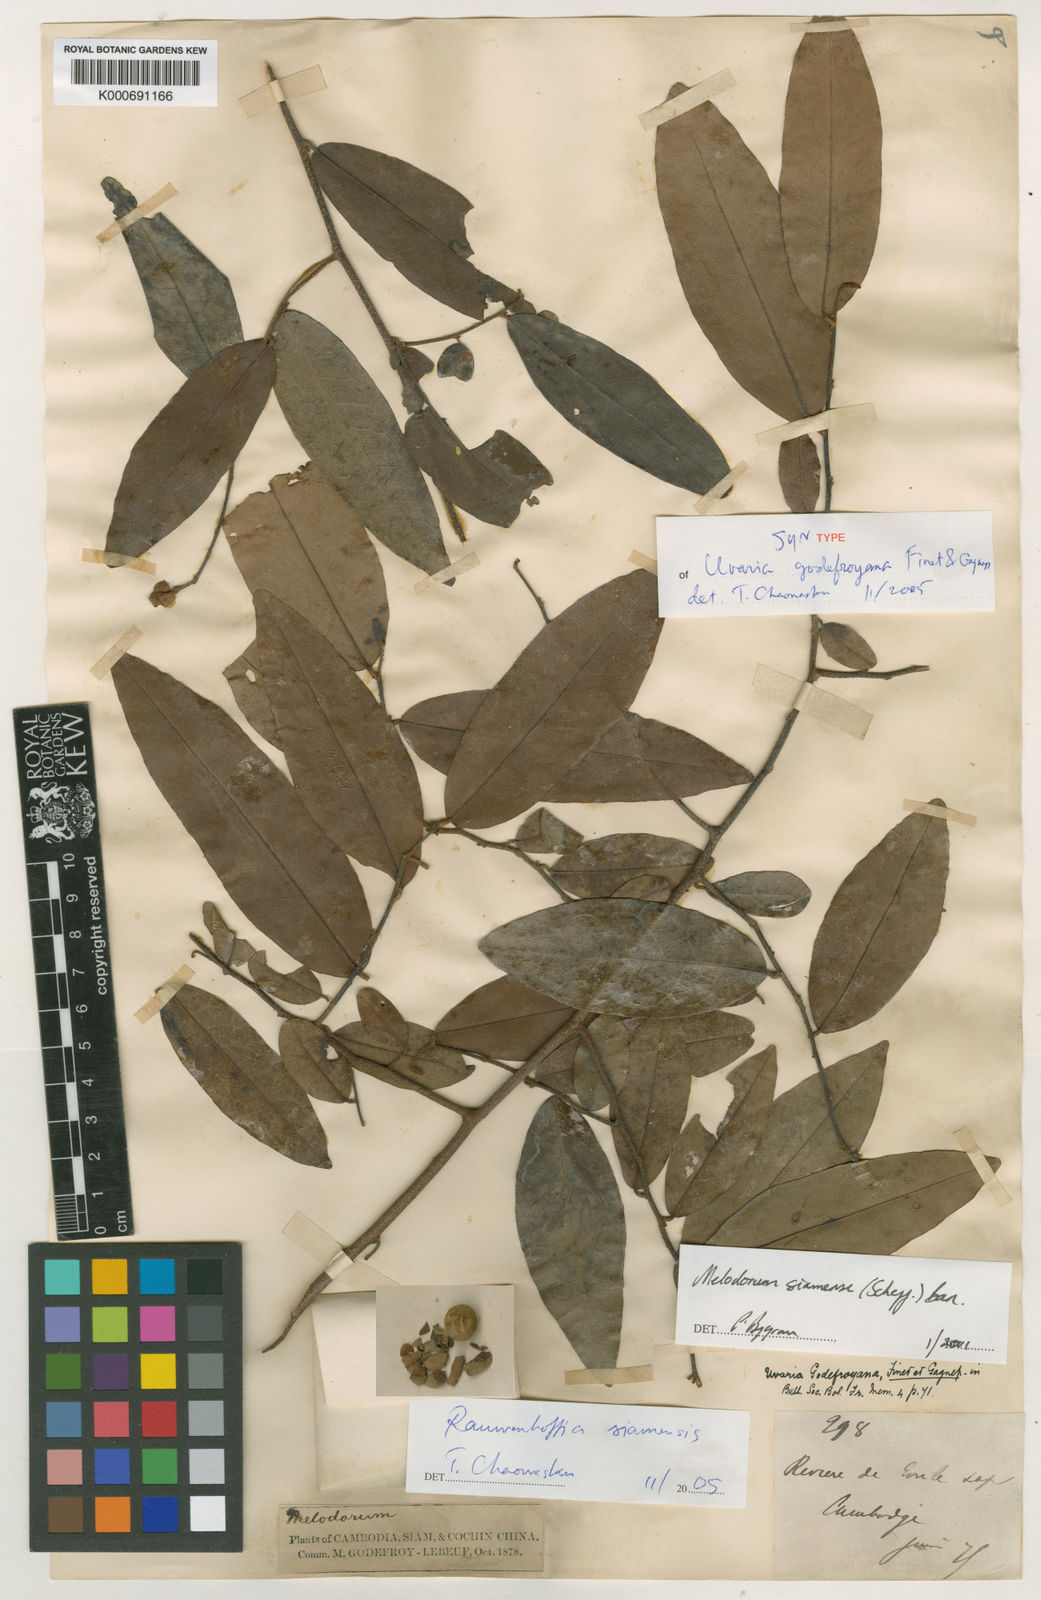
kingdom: Plantae
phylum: Tracheophyta
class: Magnoliopsida
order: Magnoliales
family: Annonaceae
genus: Uvaria
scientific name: Uvaria siamensis
